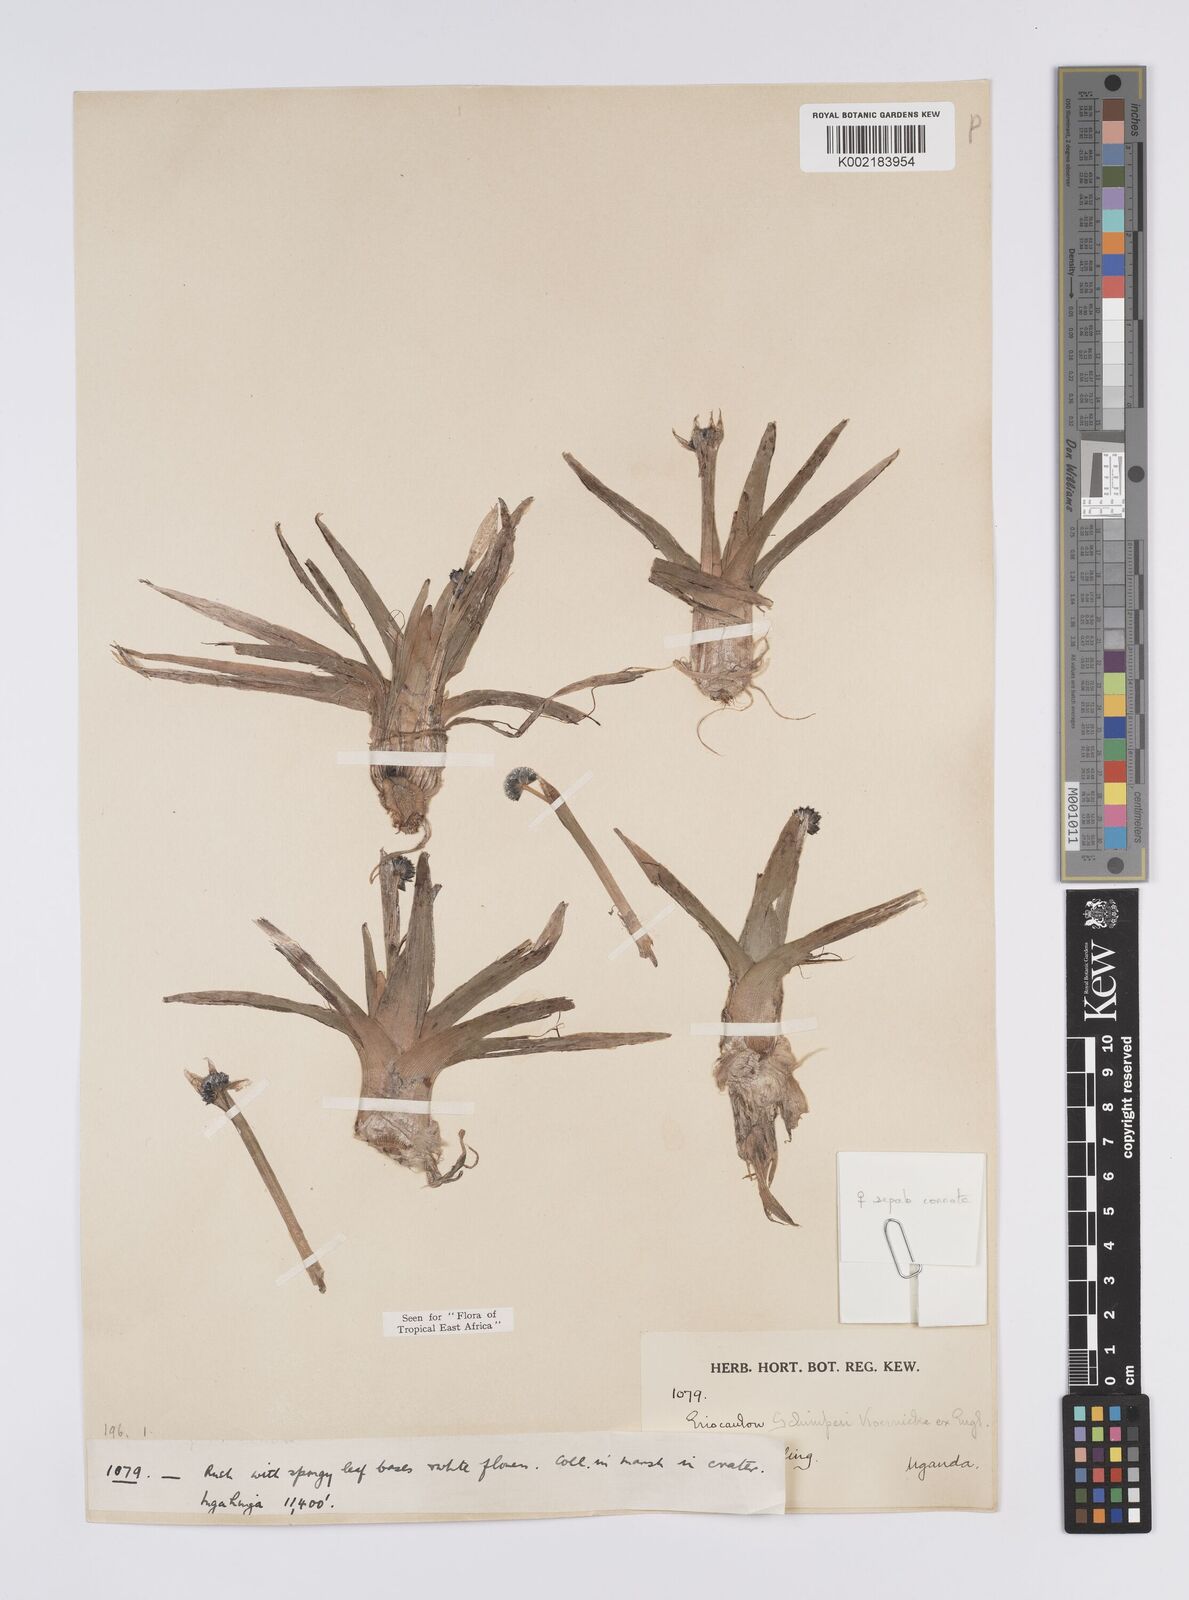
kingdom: Plantae
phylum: Tracheophyta
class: Liliopsida
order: Poales
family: Eriocaulaceae
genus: Eriocaulon
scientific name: Eriocaulon schimperi
